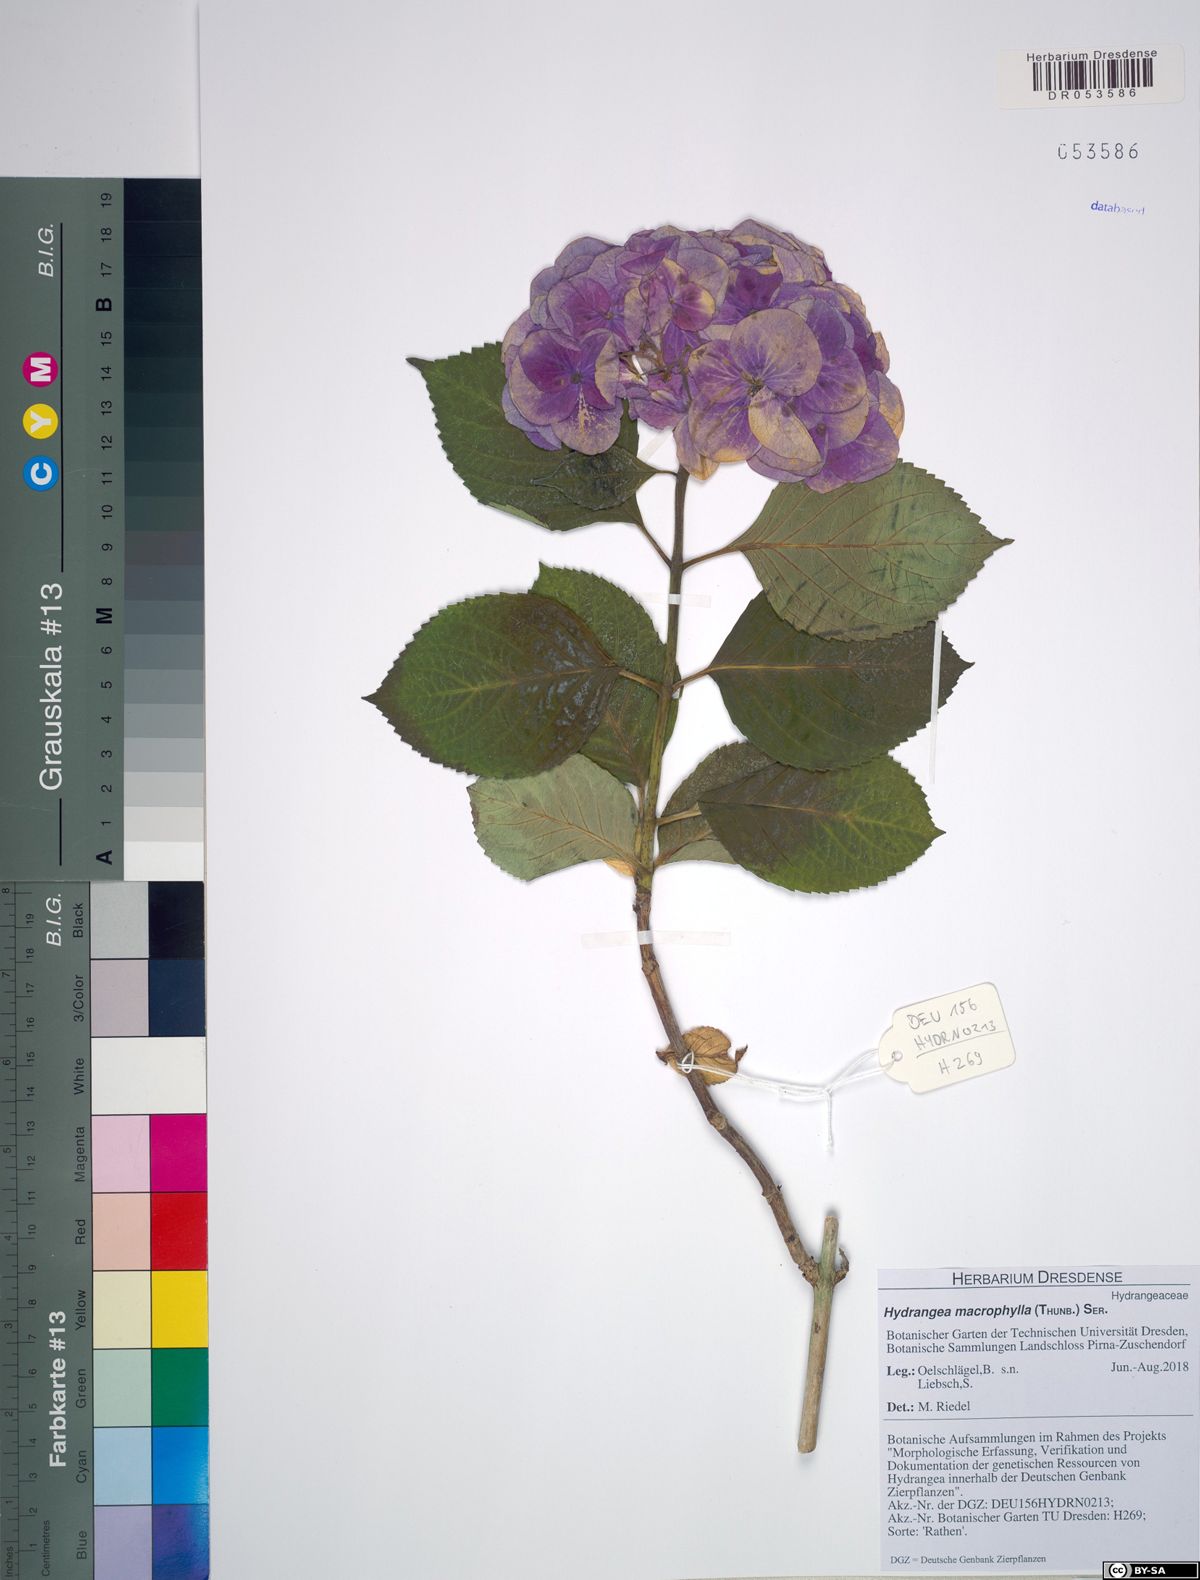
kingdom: Plantae
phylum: Tracheophyta
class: Magnoliopsida
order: Cornales
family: Hydrangeaceae
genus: Hydrangea
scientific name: Hydrangea macrophylla
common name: Hydrangea
